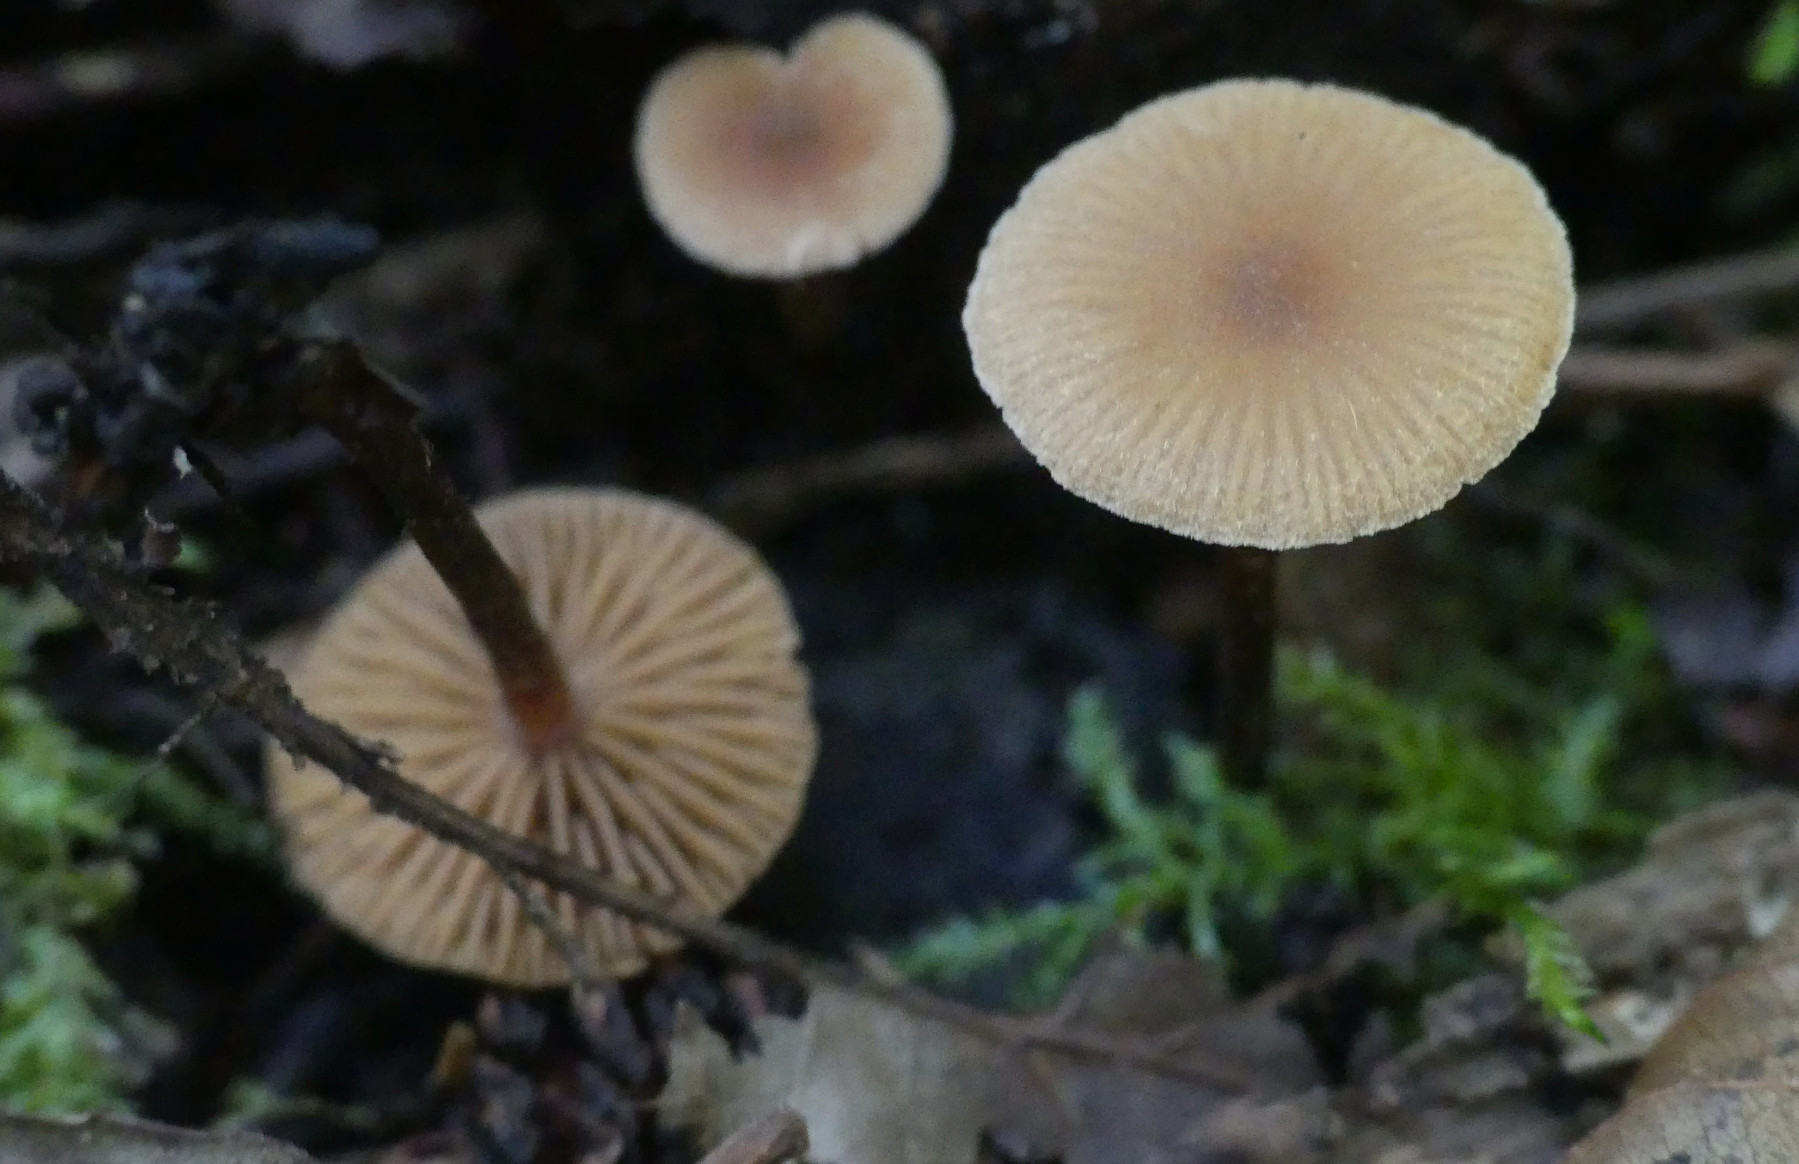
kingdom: Fungi
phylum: Basidiomycota
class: Agaricomycetes
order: Agaricales
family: Hymenogastraceae
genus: Naucoria
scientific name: Naucoria
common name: knaphat
